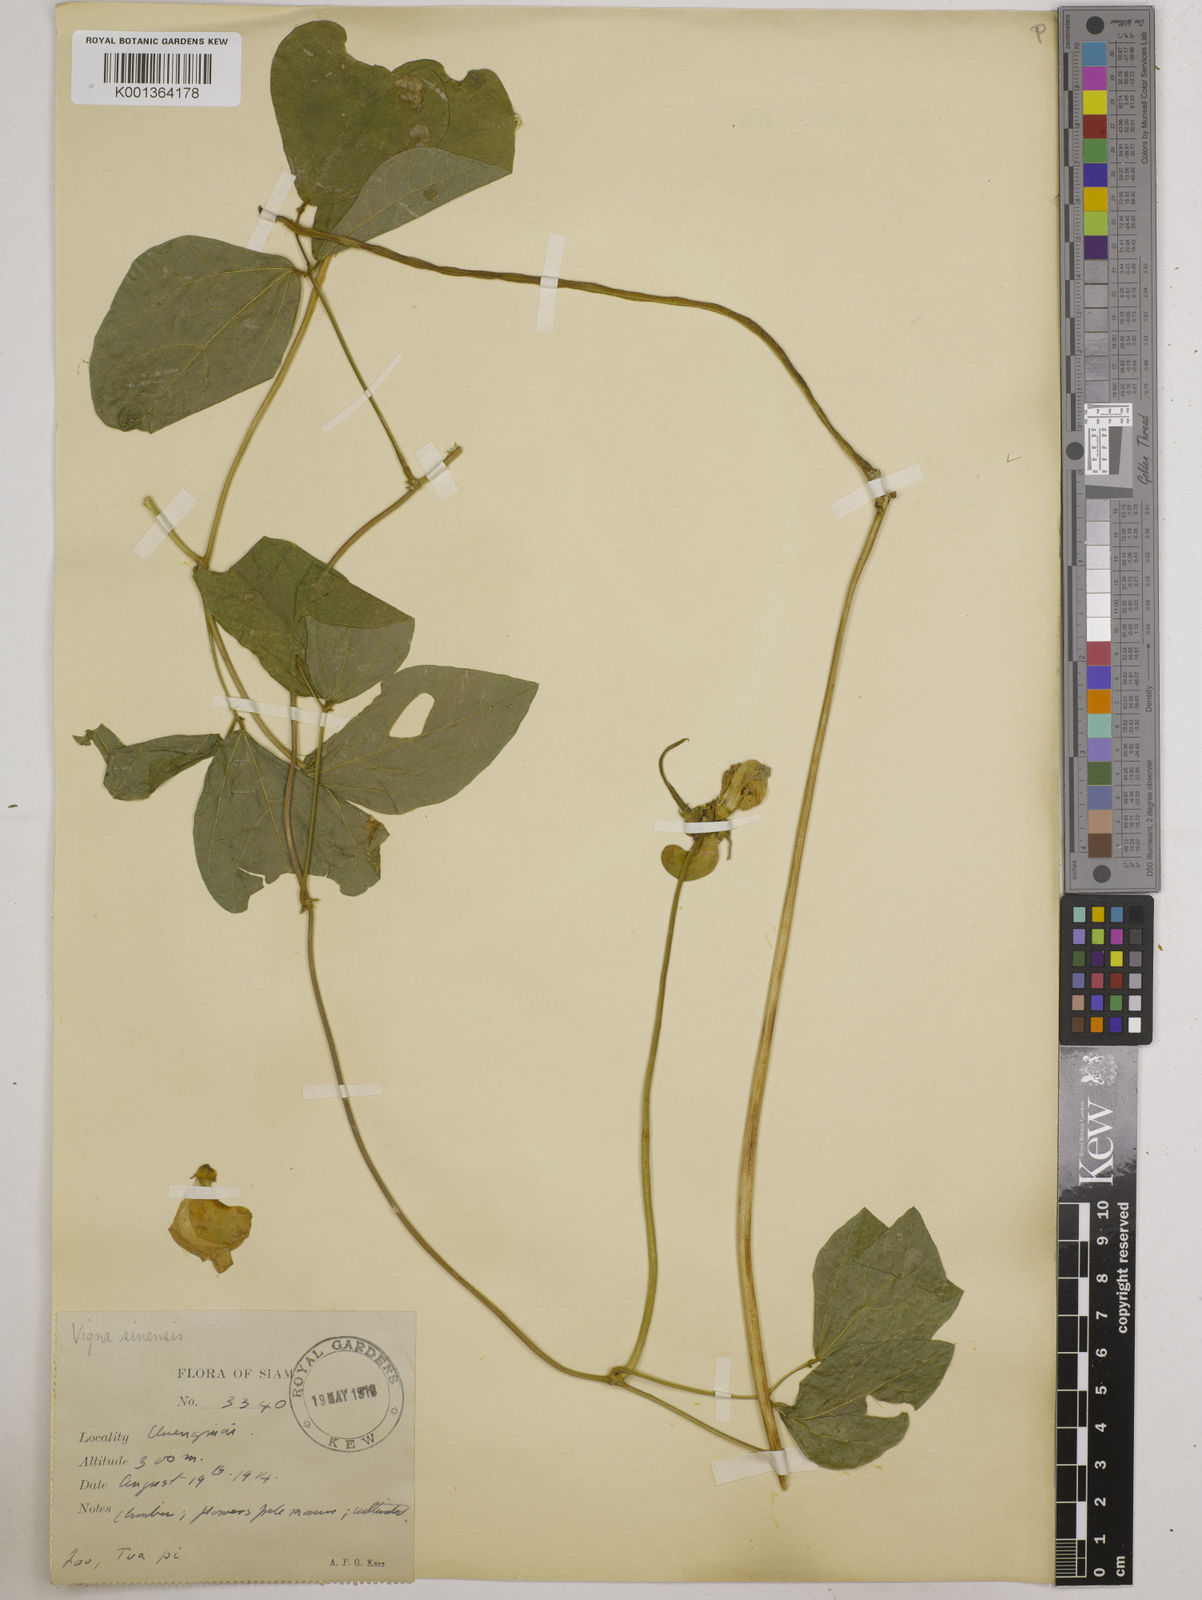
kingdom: Plantae
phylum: Tracheophyta
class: Magnoliopsida
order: Fabales
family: Fabaceae
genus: Vigna
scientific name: Vigna unguiculata
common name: Cowpea
